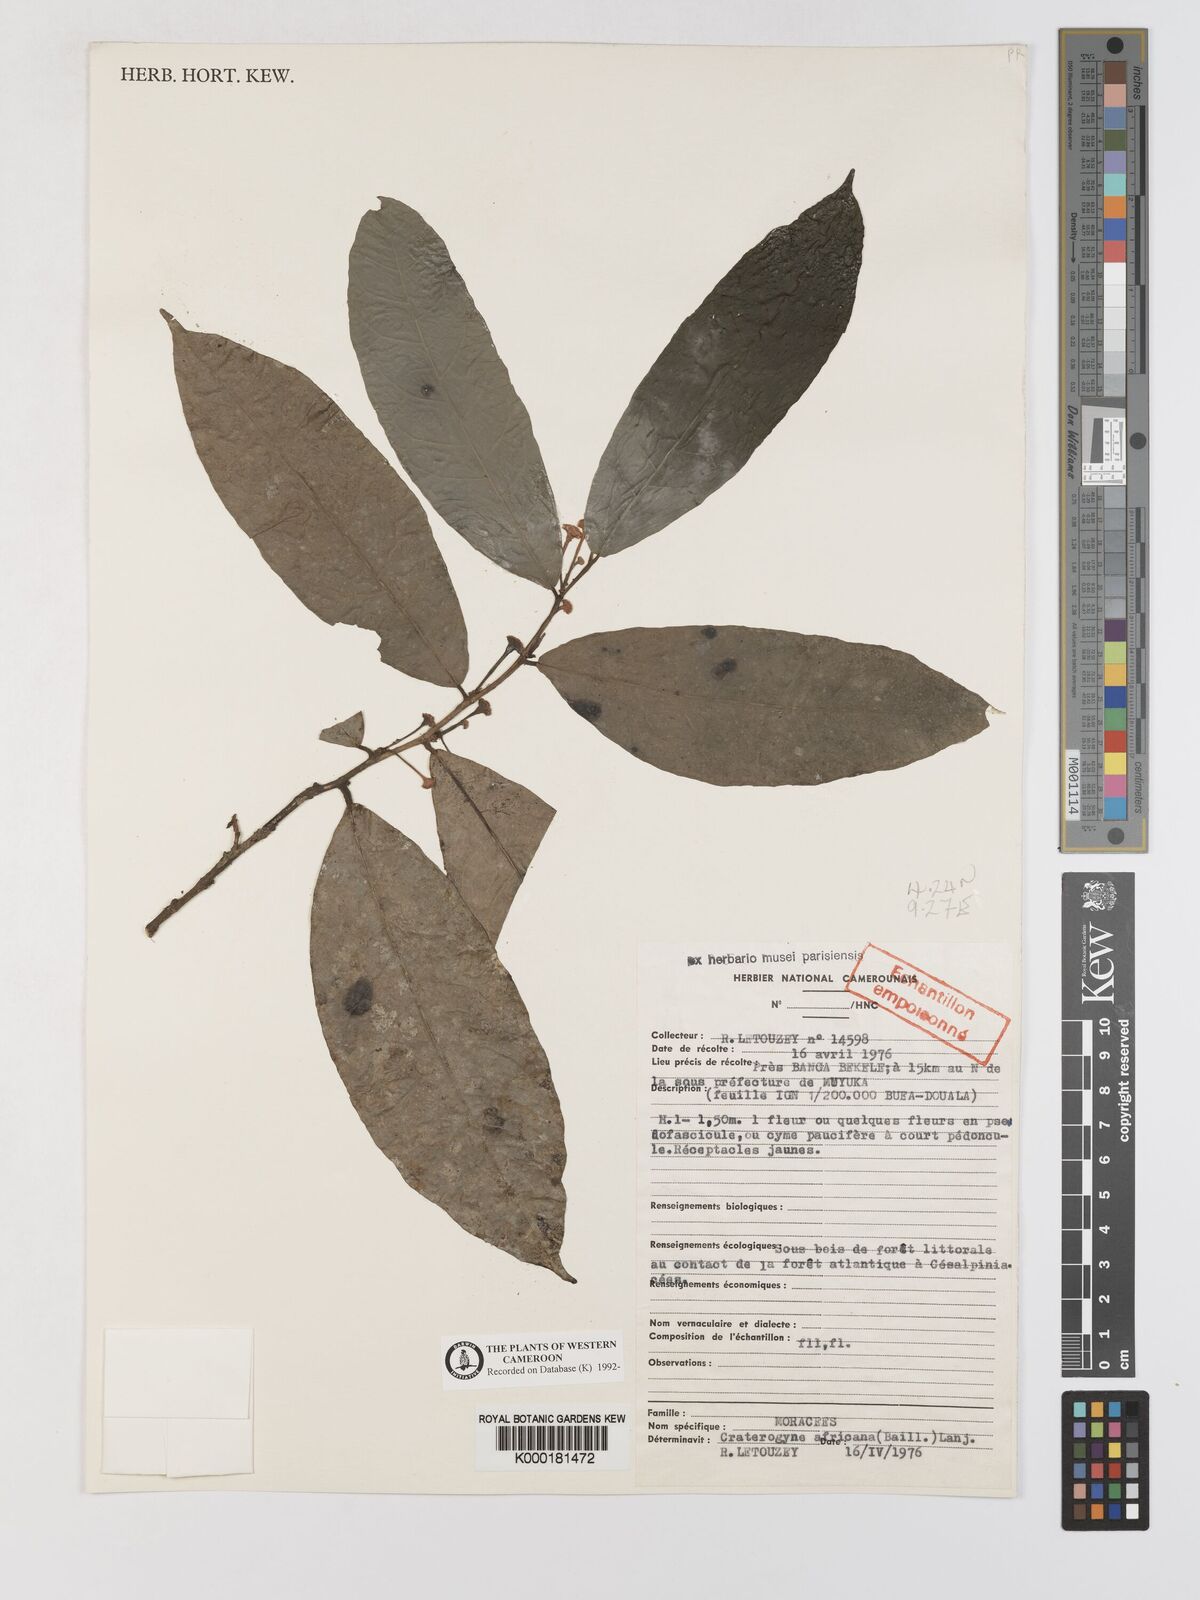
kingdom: Plantae
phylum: Tracheophyta
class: Magnoliopsida
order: Rosales
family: Moraceae
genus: Dorstenia
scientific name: Dorstenia africana
